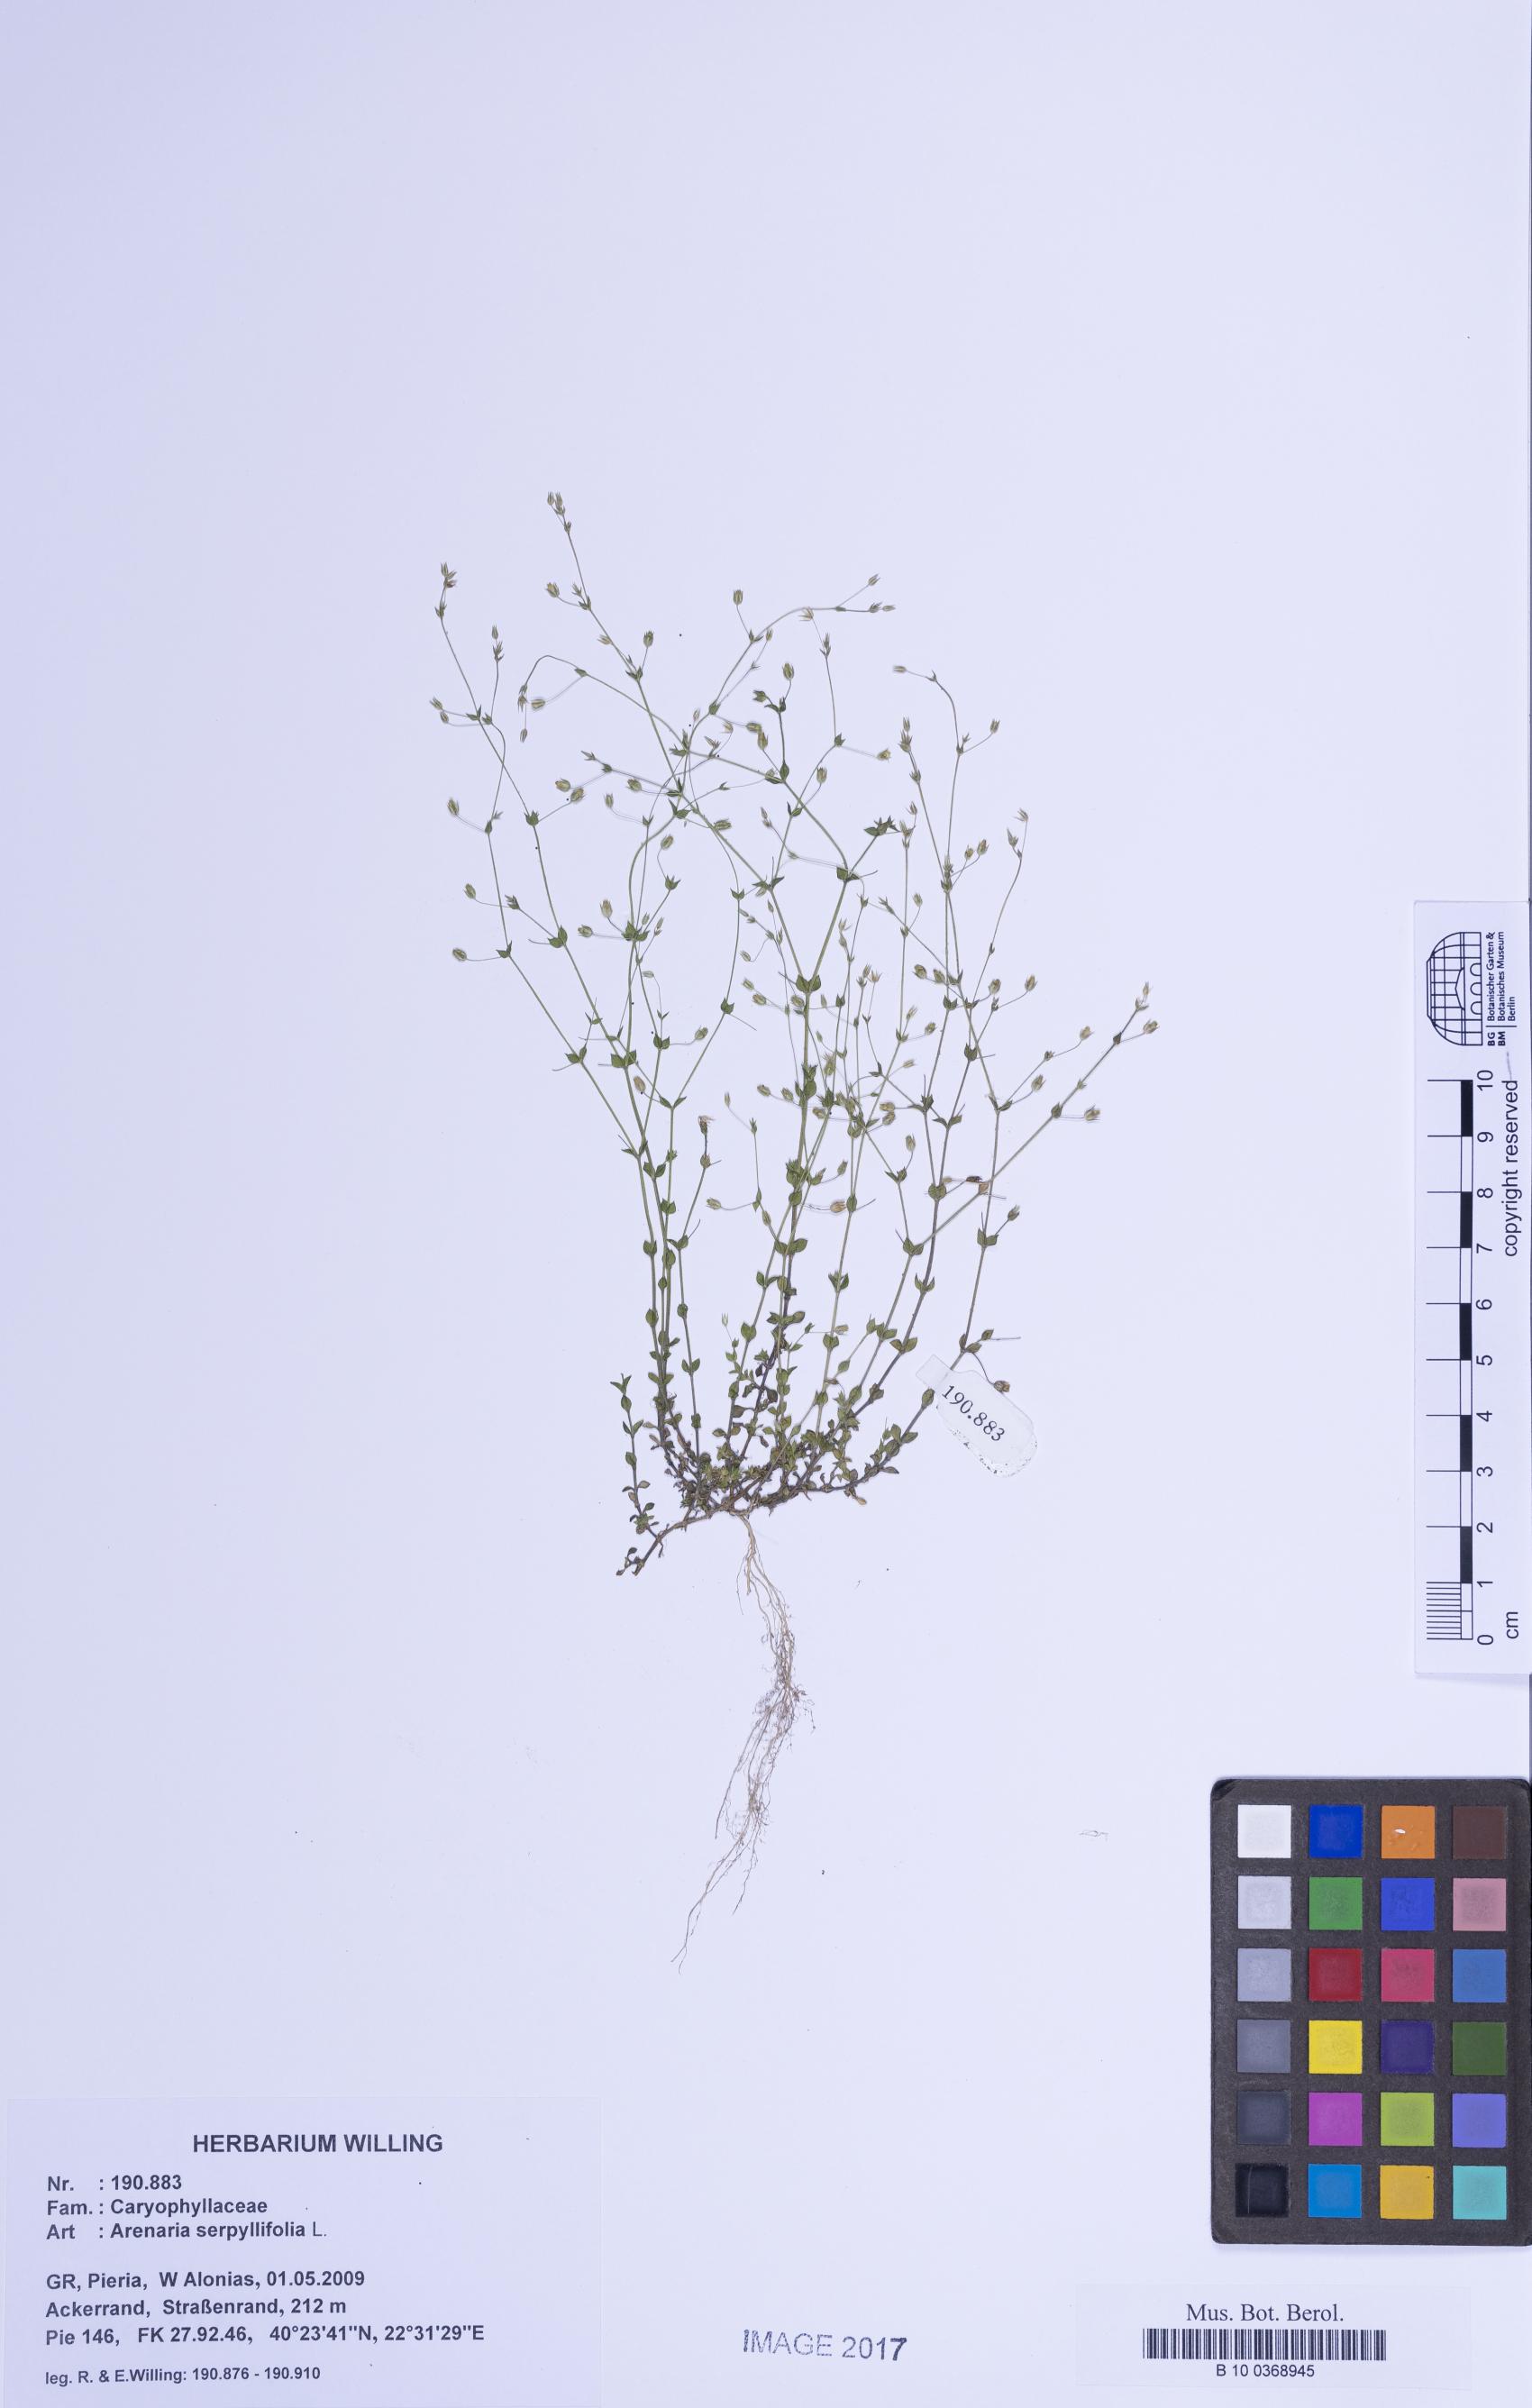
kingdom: Plantae
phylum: Tracheophyta
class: Magnoliopsida
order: Caryophyllales
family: Caryophyllaceae
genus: Arenaria
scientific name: Arenaria serpyllifolia
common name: Thyme-leaved sandwort
